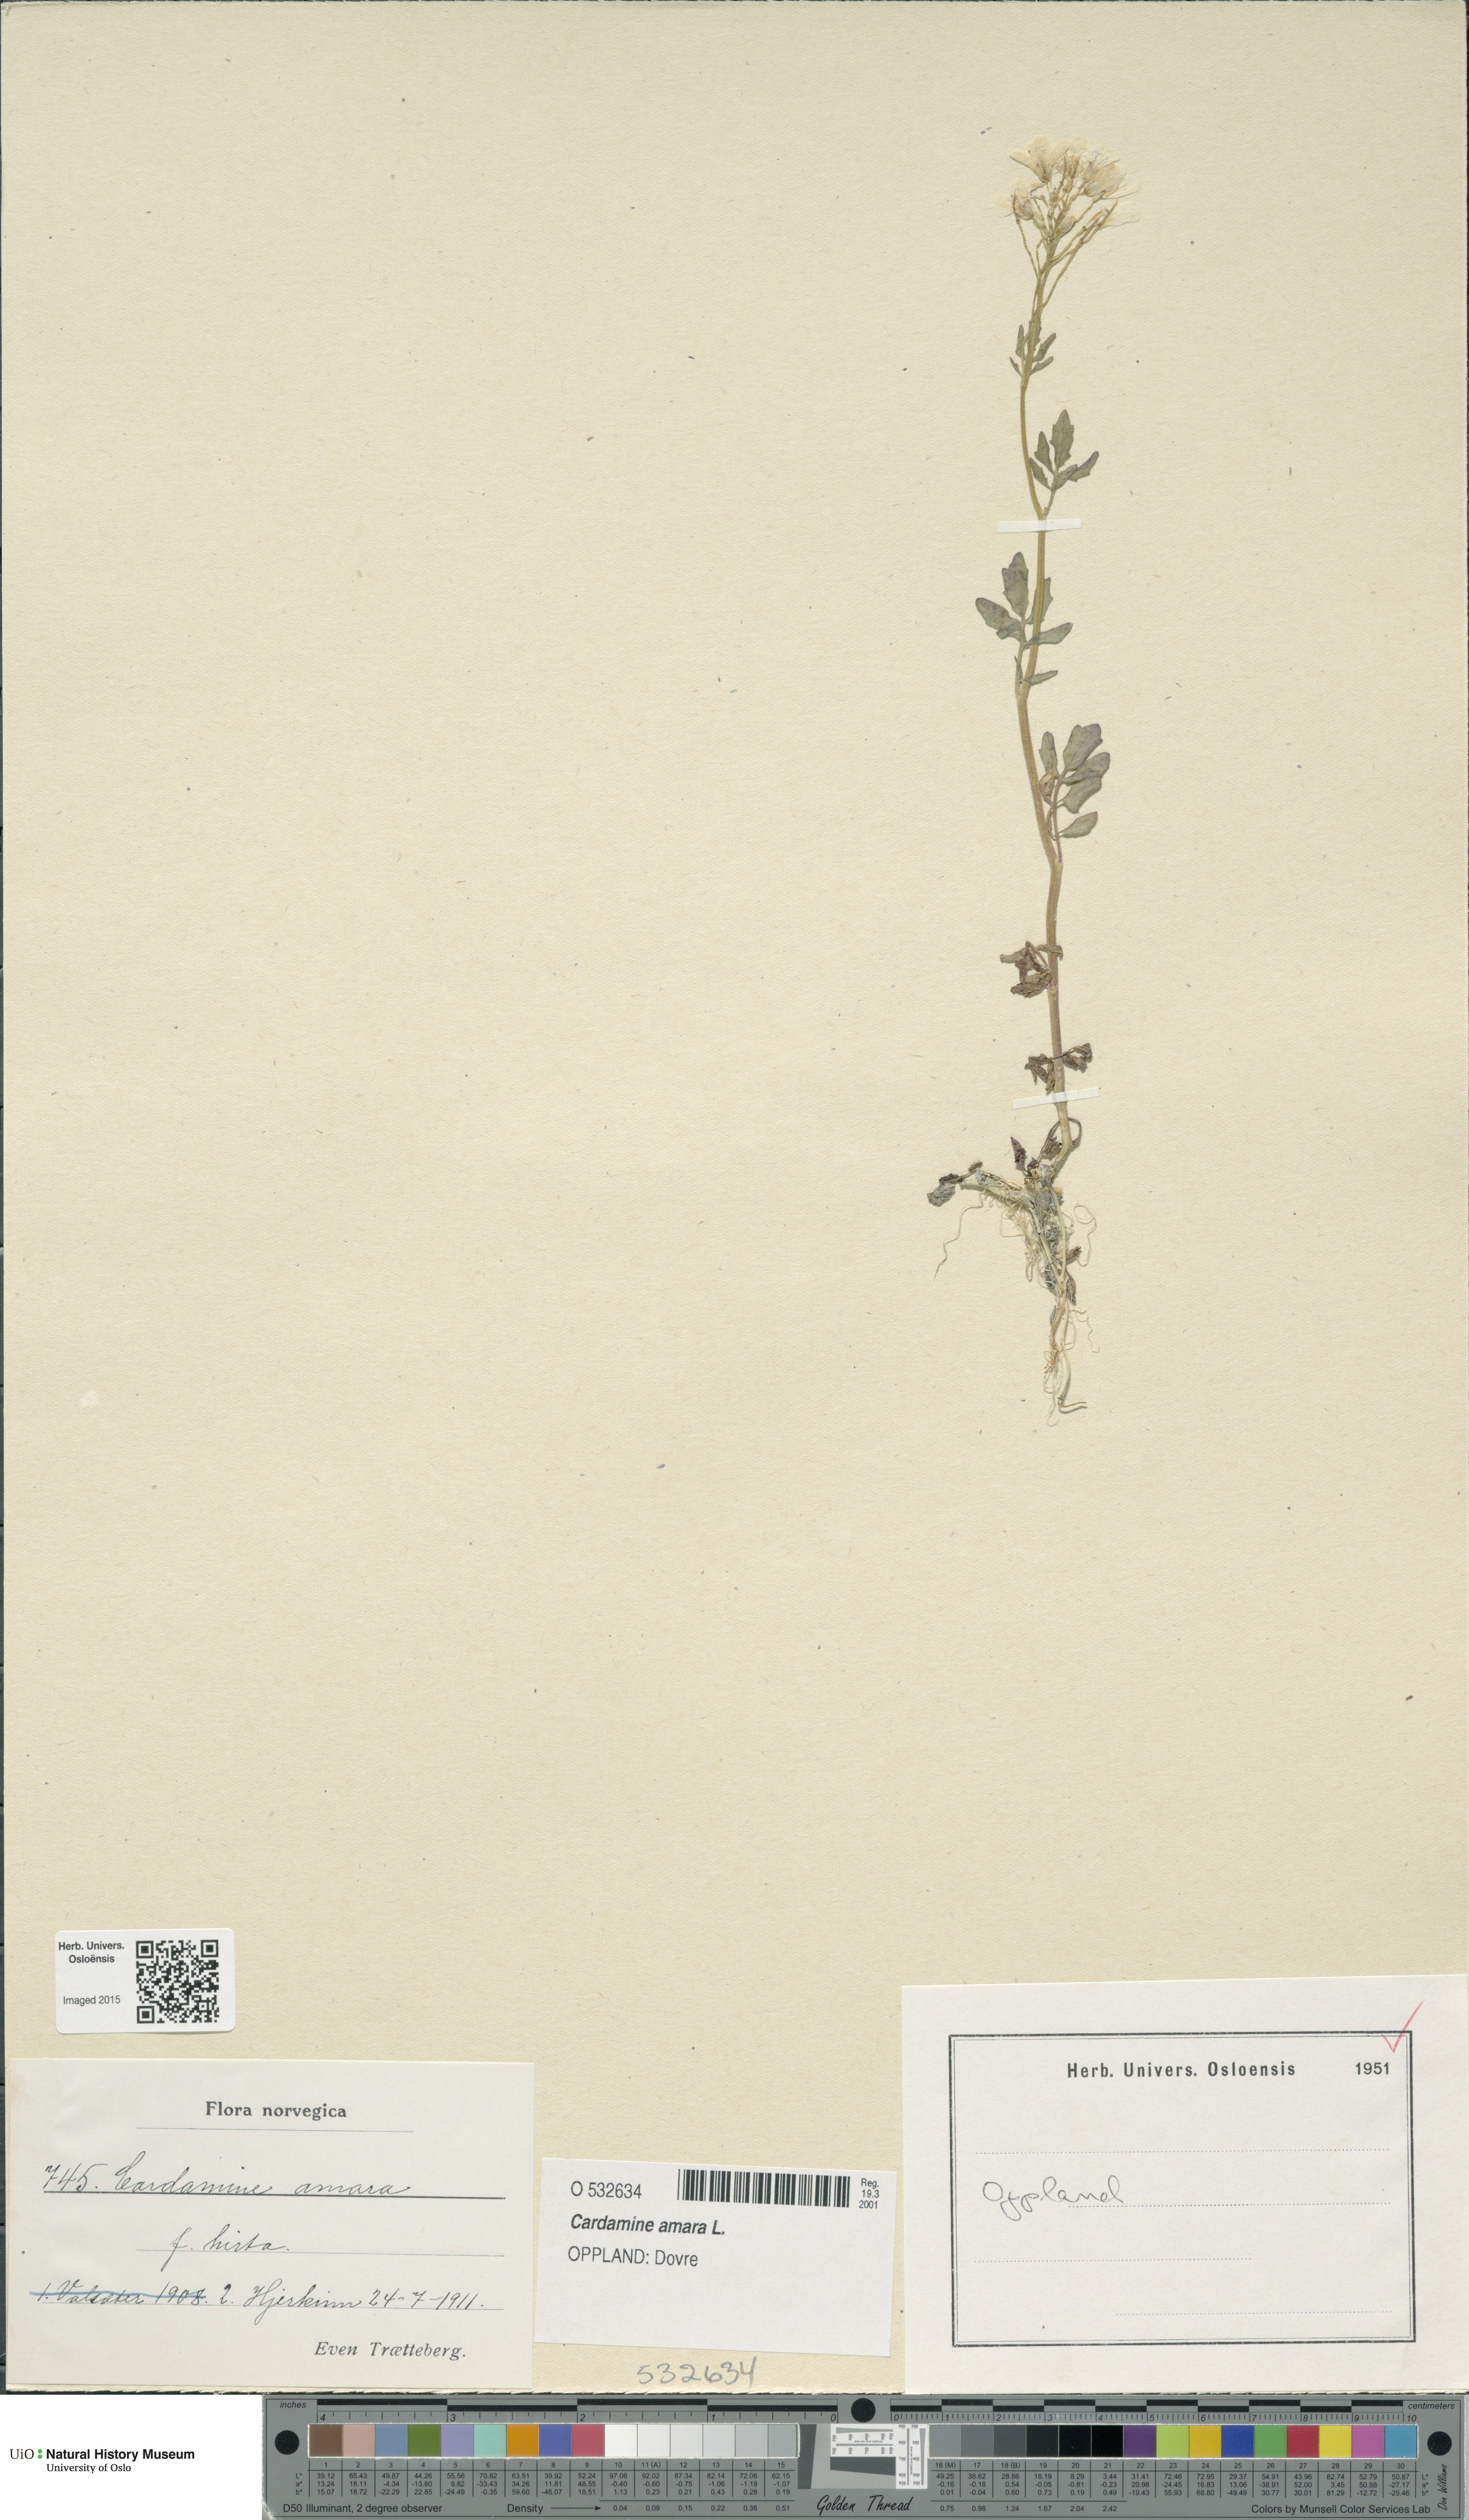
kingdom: Plantae
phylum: Tracheophyta
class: Magnoliopsida
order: Brassicales
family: Brassicaceae
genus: Cardamine
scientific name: Cardamine amara
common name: Large bitter-cress
